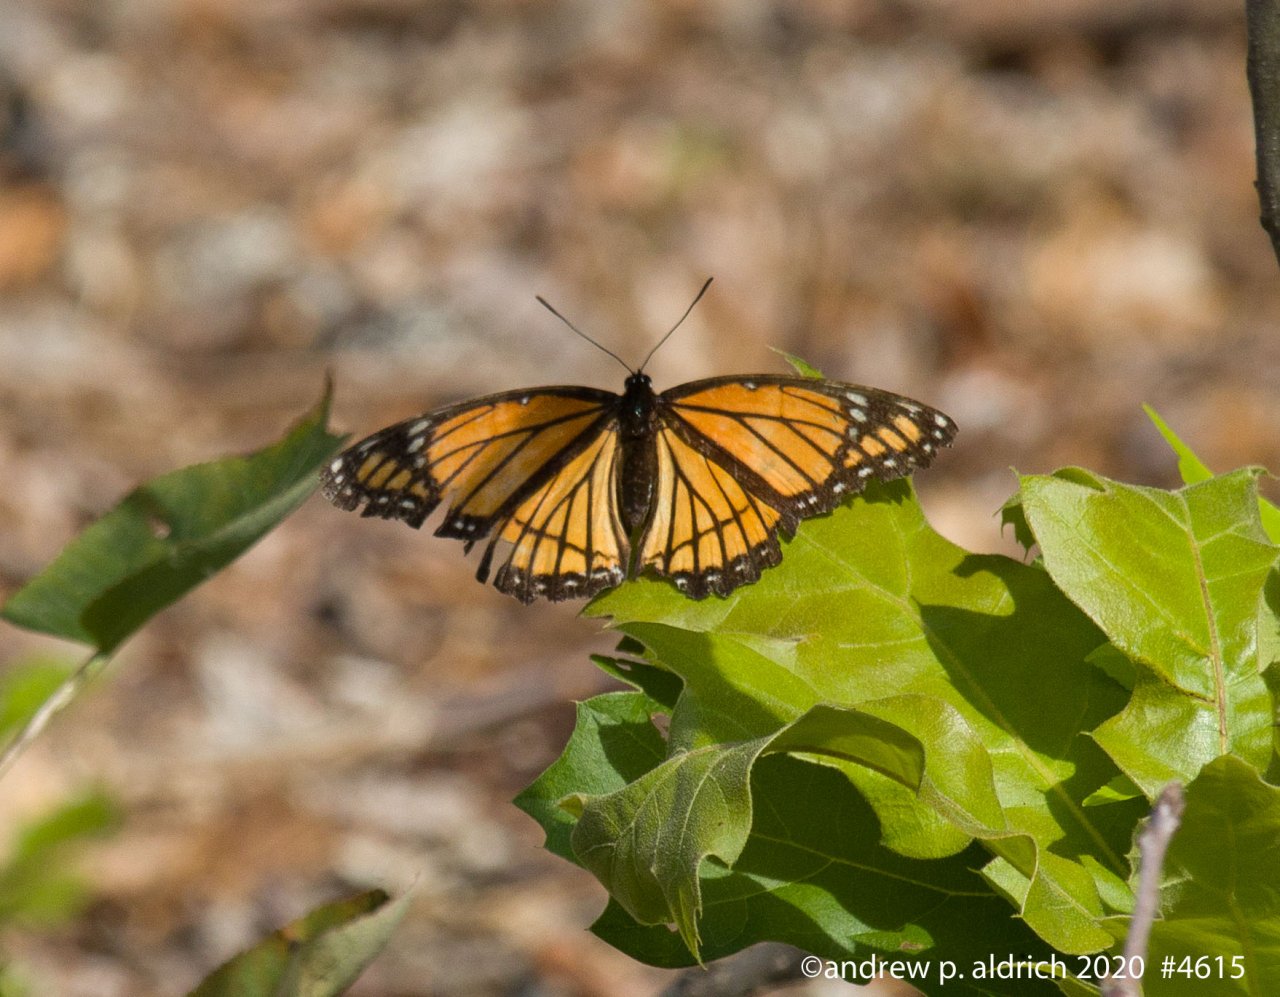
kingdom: Animalia
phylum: Arthropoda
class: Insecta
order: Lepidoptera
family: Nymphalidae
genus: Limenitis
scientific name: Limenitis archippus
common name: Viceroy
